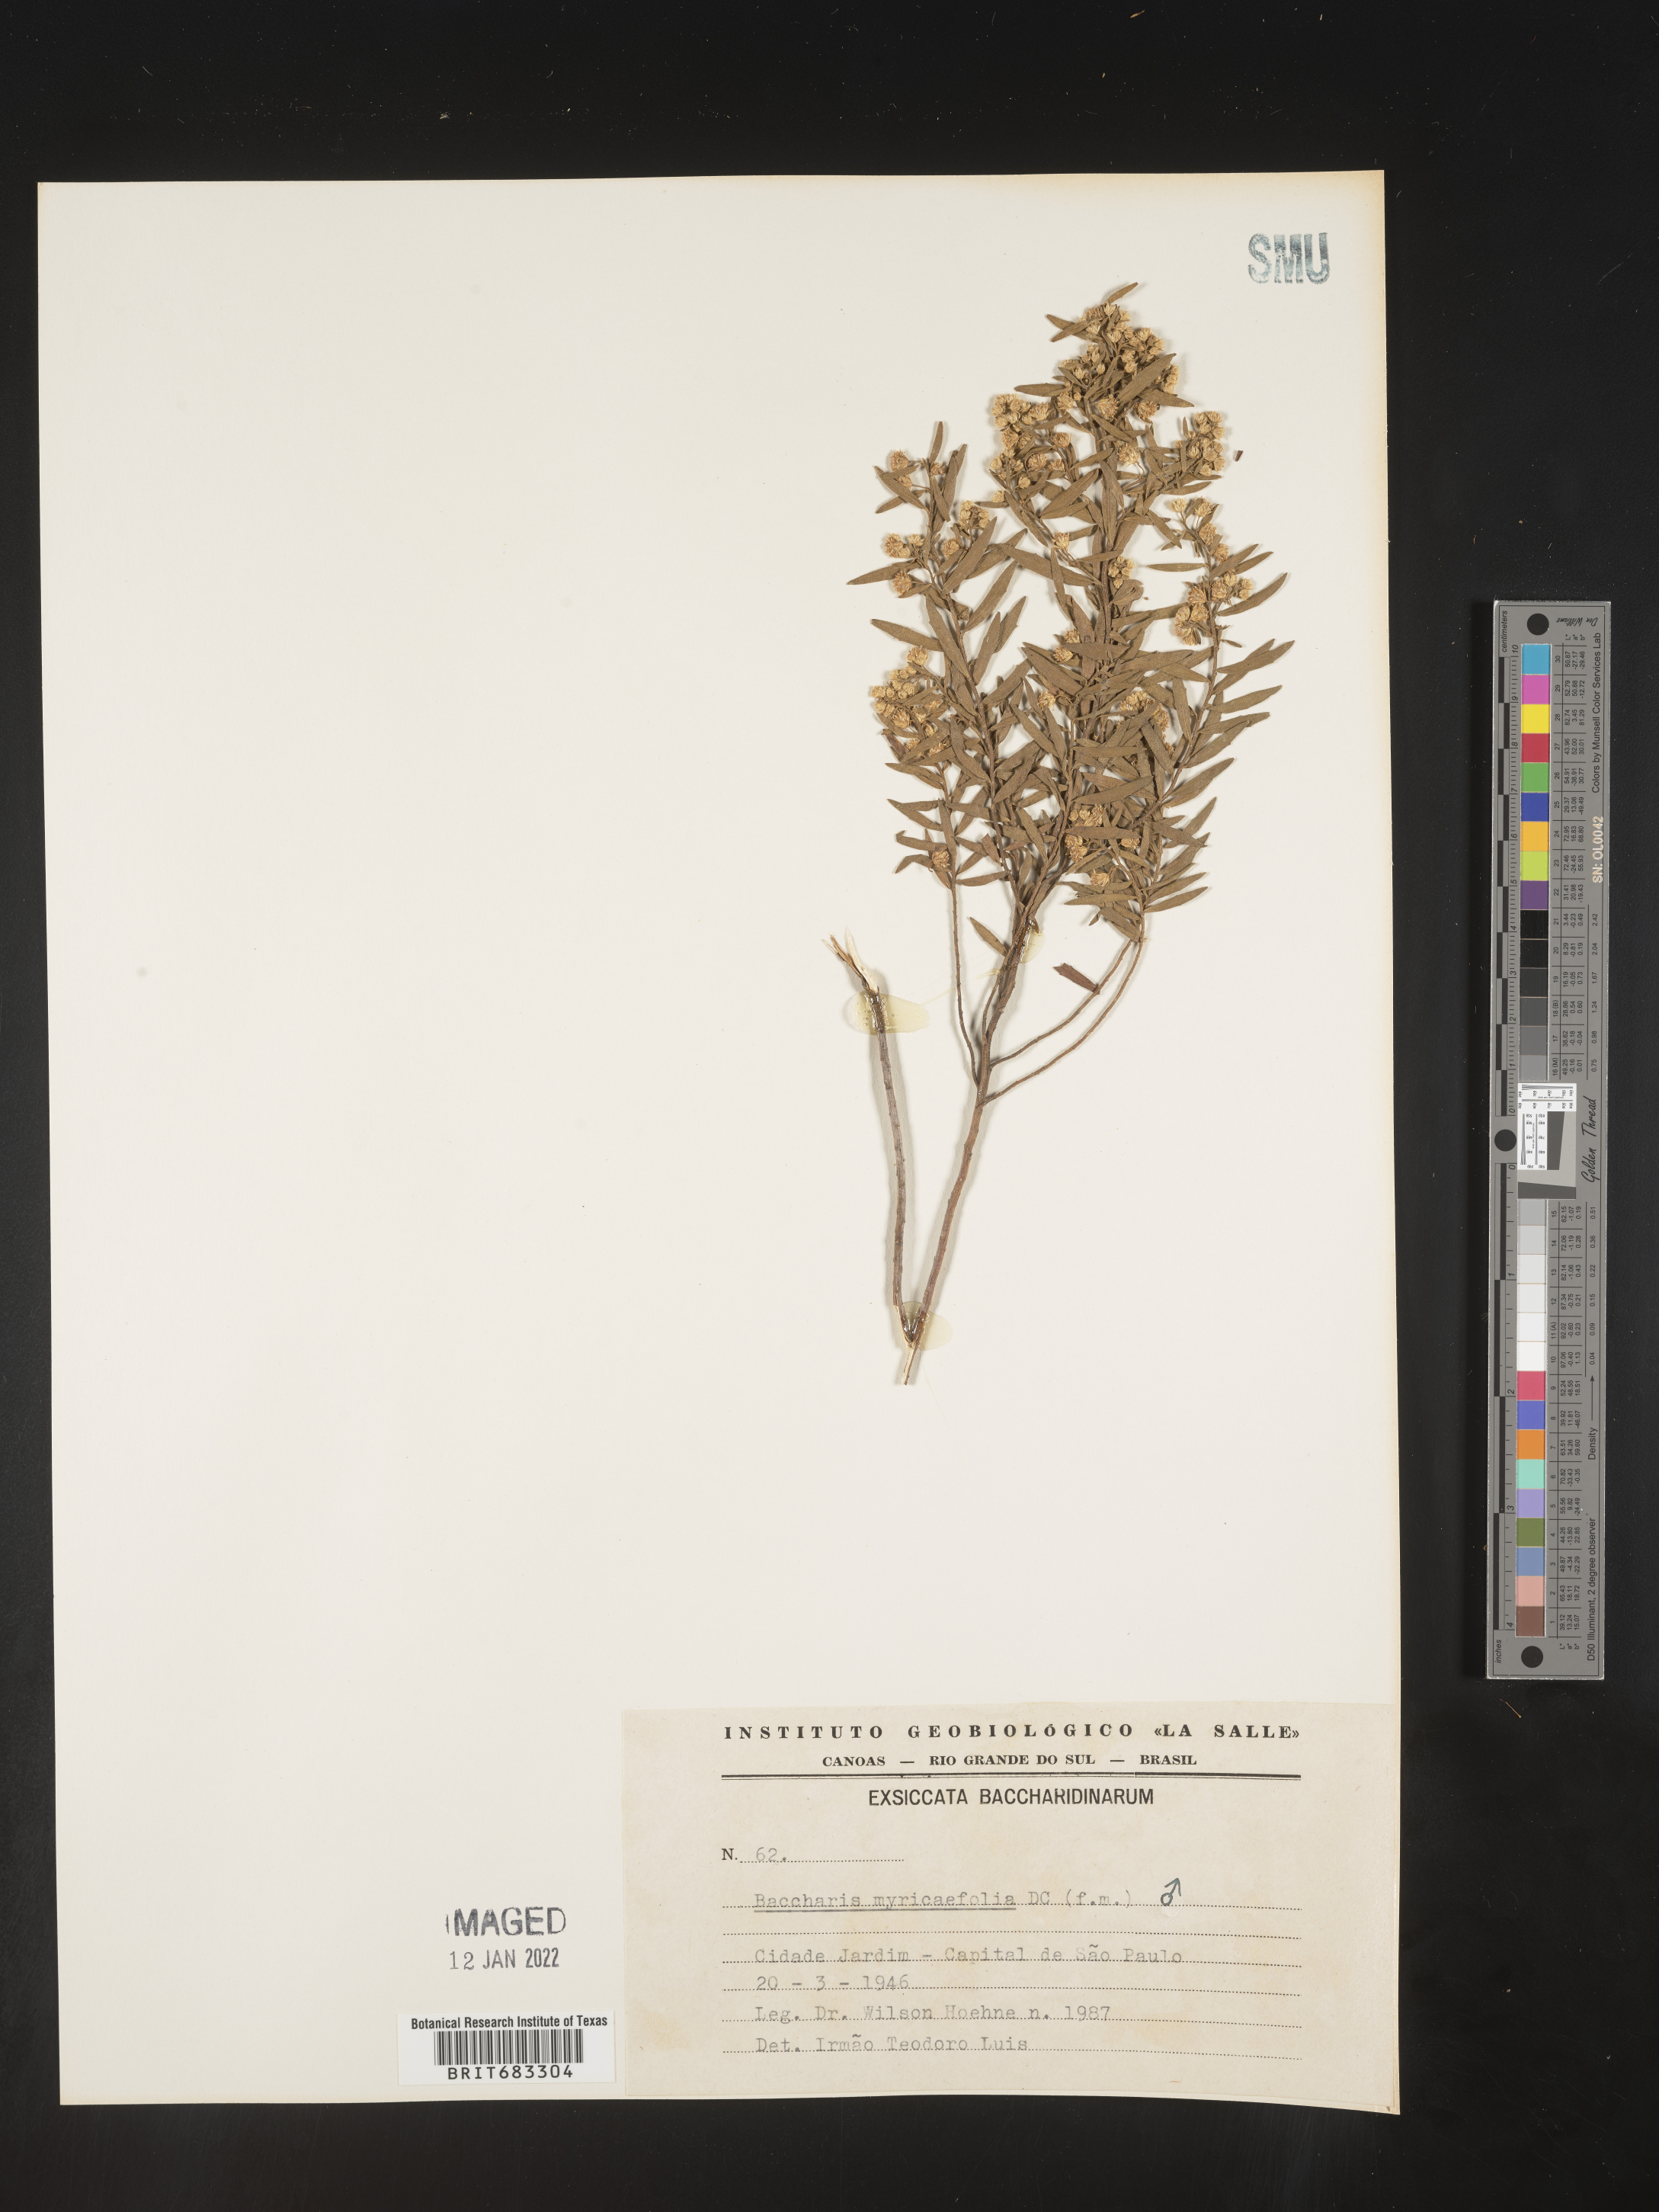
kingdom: Plantae
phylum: Tracheophyta
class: Magnoliopsida
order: Asterales
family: Asteraceae
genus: Baccharis
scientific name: Baccharis
